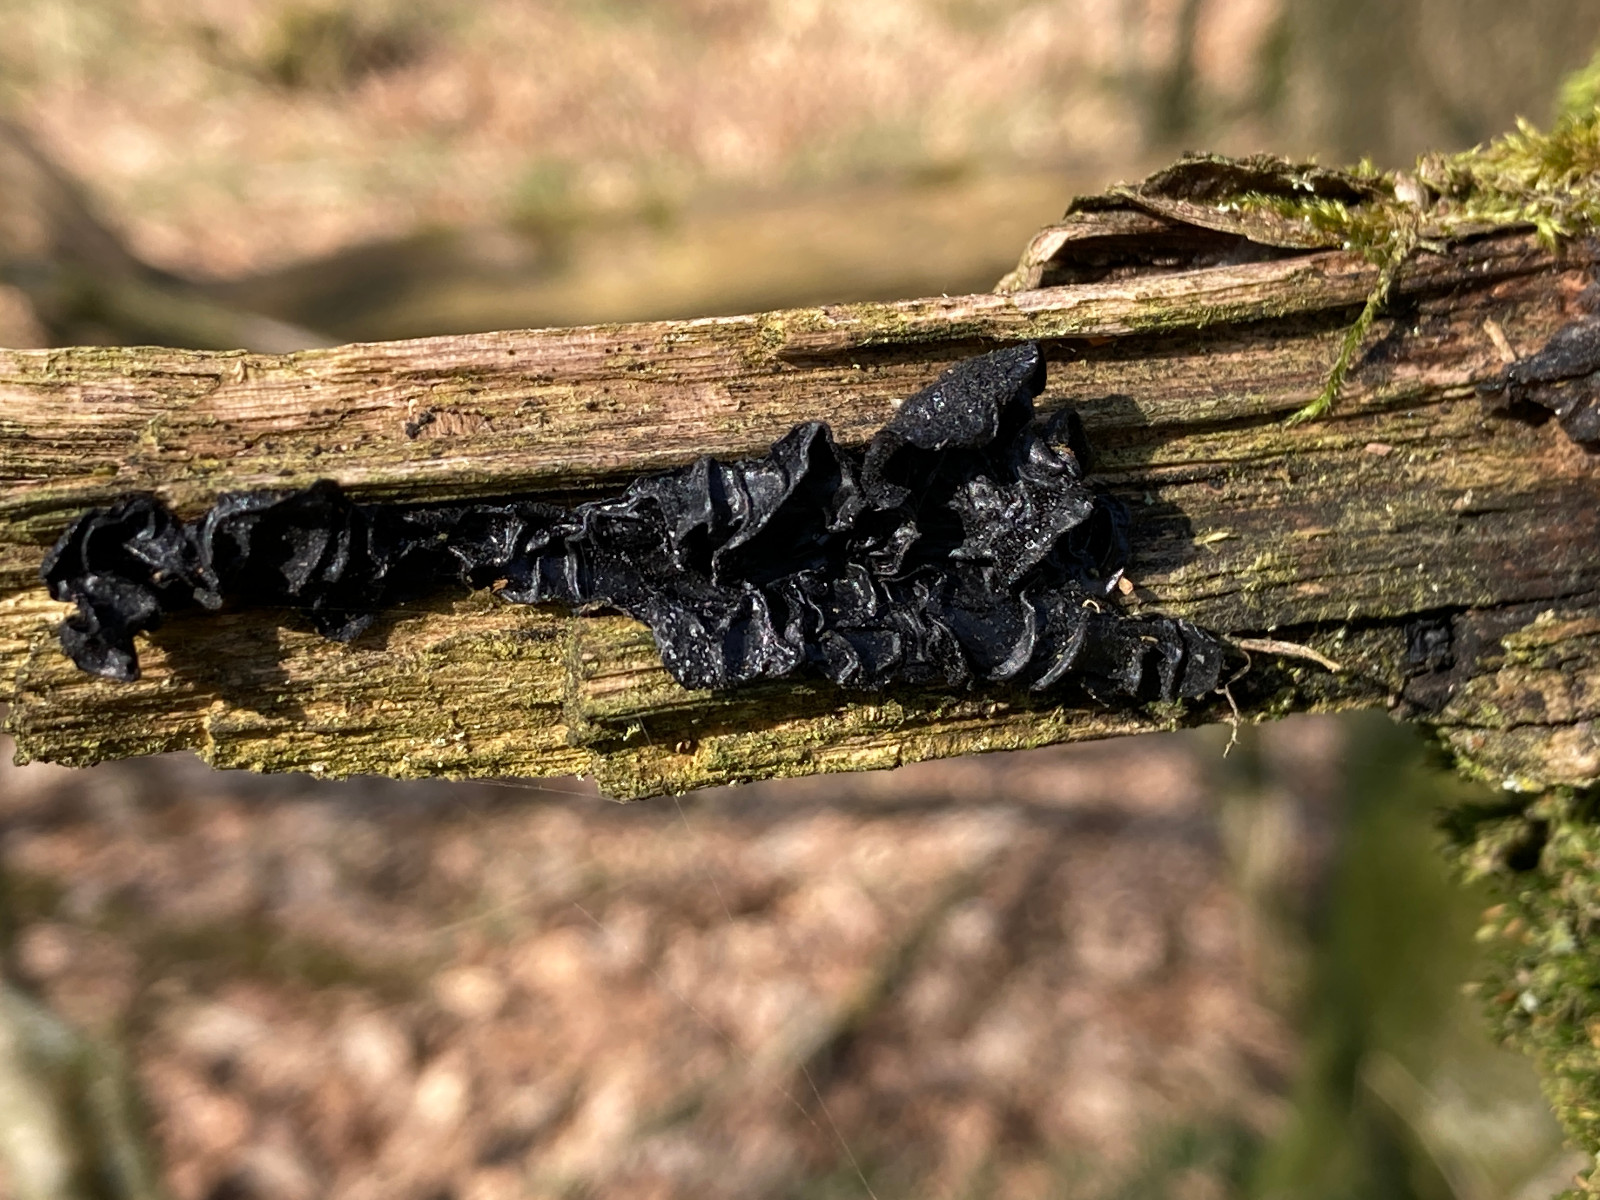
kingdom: Fungi
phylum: Basidiomycota
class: Agaricomycetes
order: Auriculariales
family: Auriculariaceae
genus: Exidia
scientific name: Exidia glandulosa
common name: ege-bævretop
